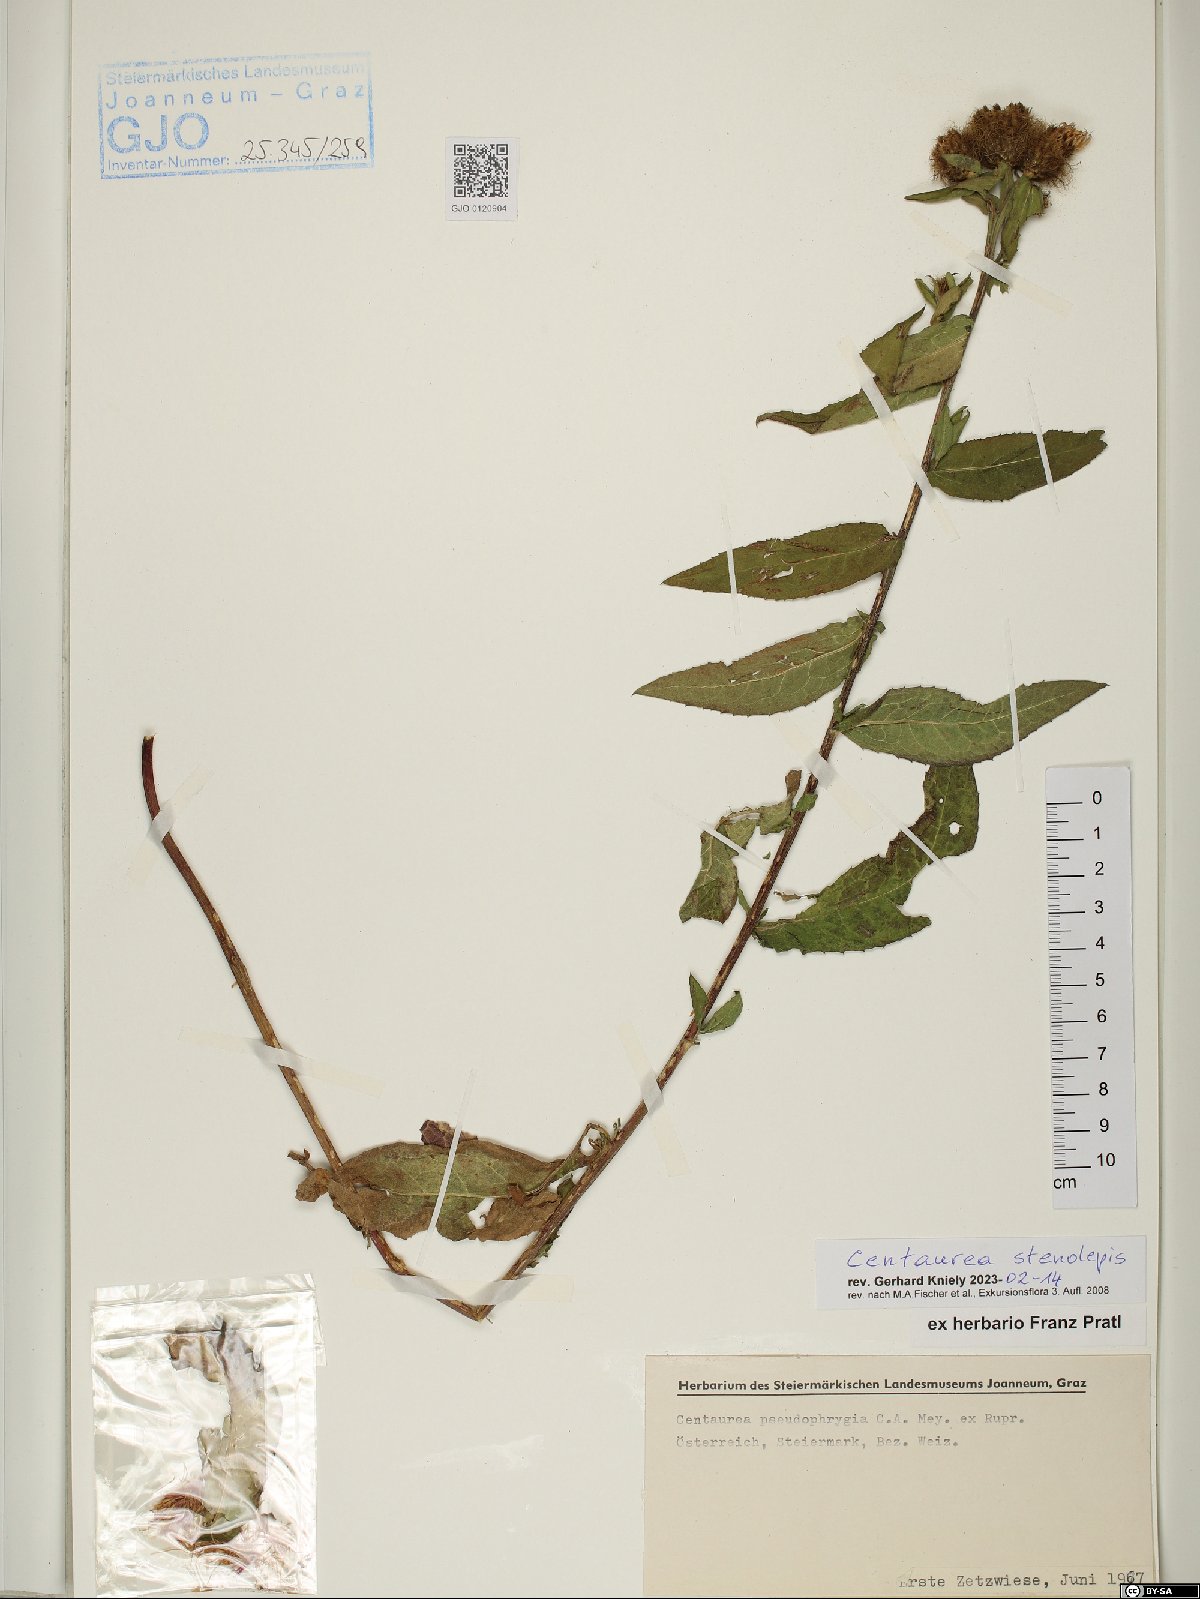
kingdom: Plantae
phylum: Tracheophyta
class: Magnoliopsida
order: Asterales
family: Asteraceae
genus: Centaurea
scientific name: Centaurea stenolepis
